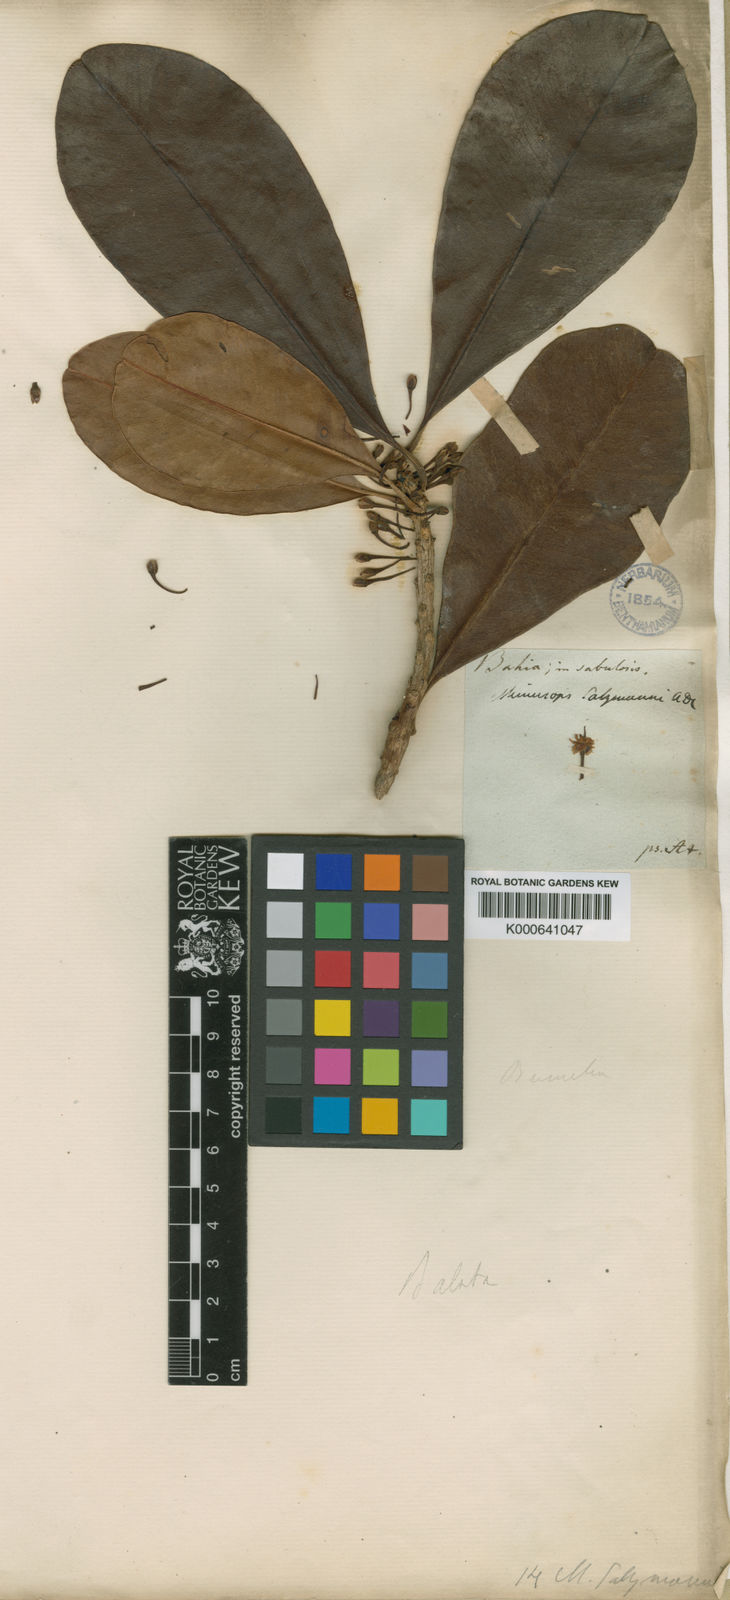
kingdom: Plantae
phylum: Tracheophyta
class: Magnoliopsida
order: Ericales
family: Sapotaceae
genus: Manilkara
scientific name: Manilkara salzmannii
